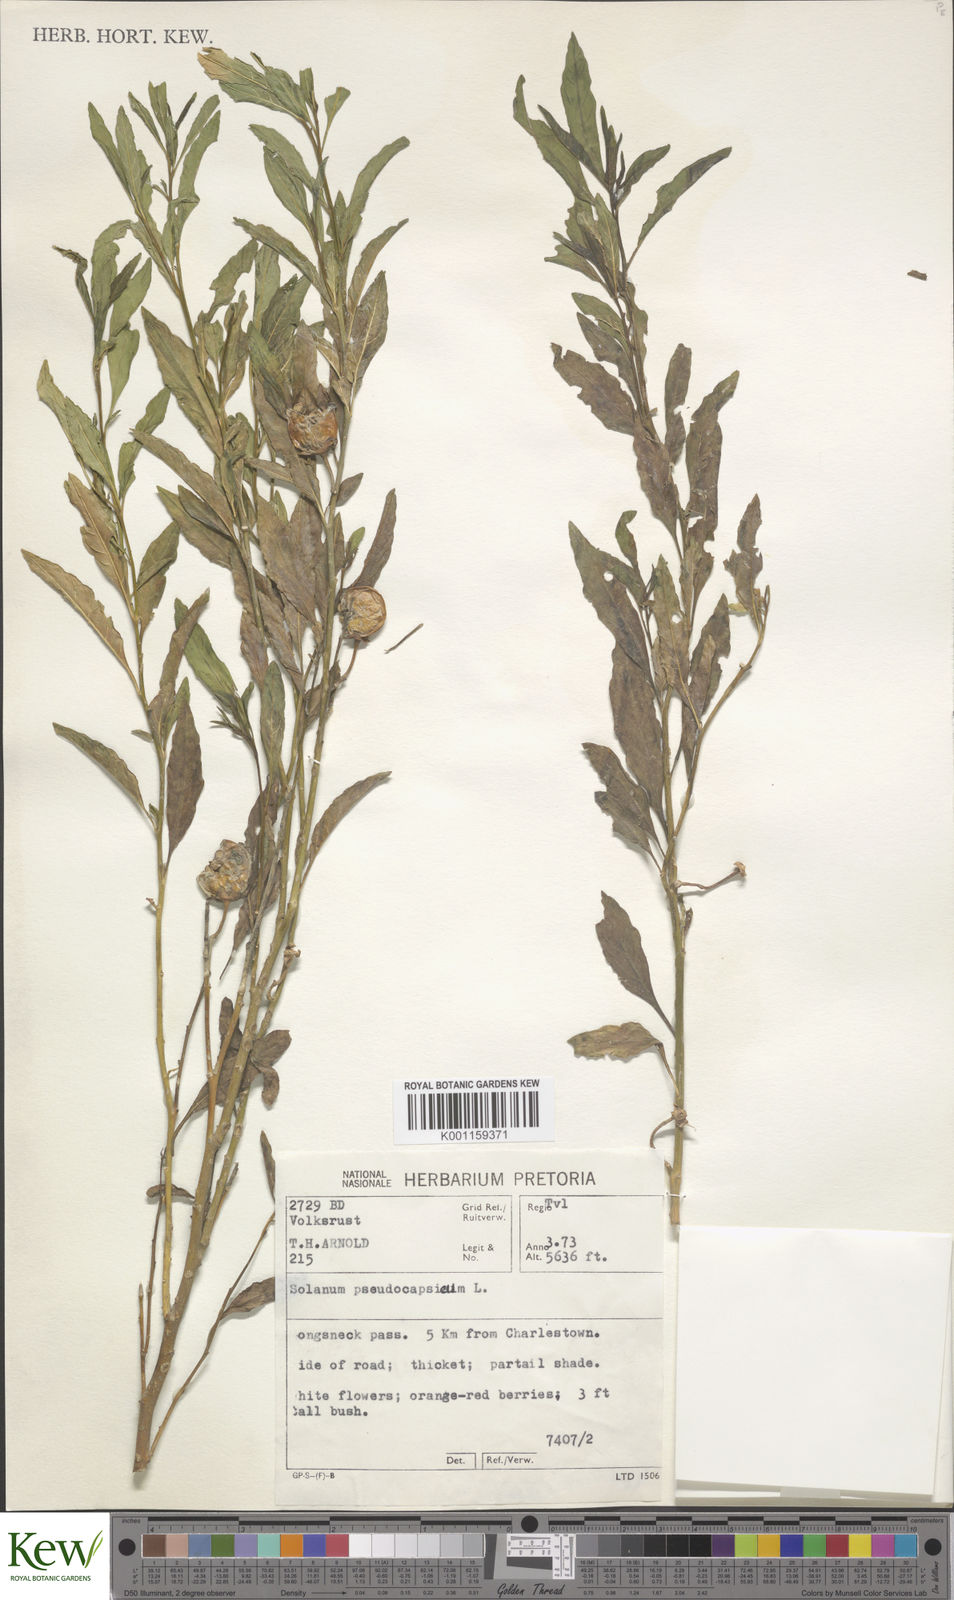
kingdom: Plantae
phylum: Tracheophyta
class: Magnoliopsida
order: Solanales
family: Solanaceae
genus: Solanum
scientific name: Solanum pseudocapsicum
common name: Jerusalem cherry
